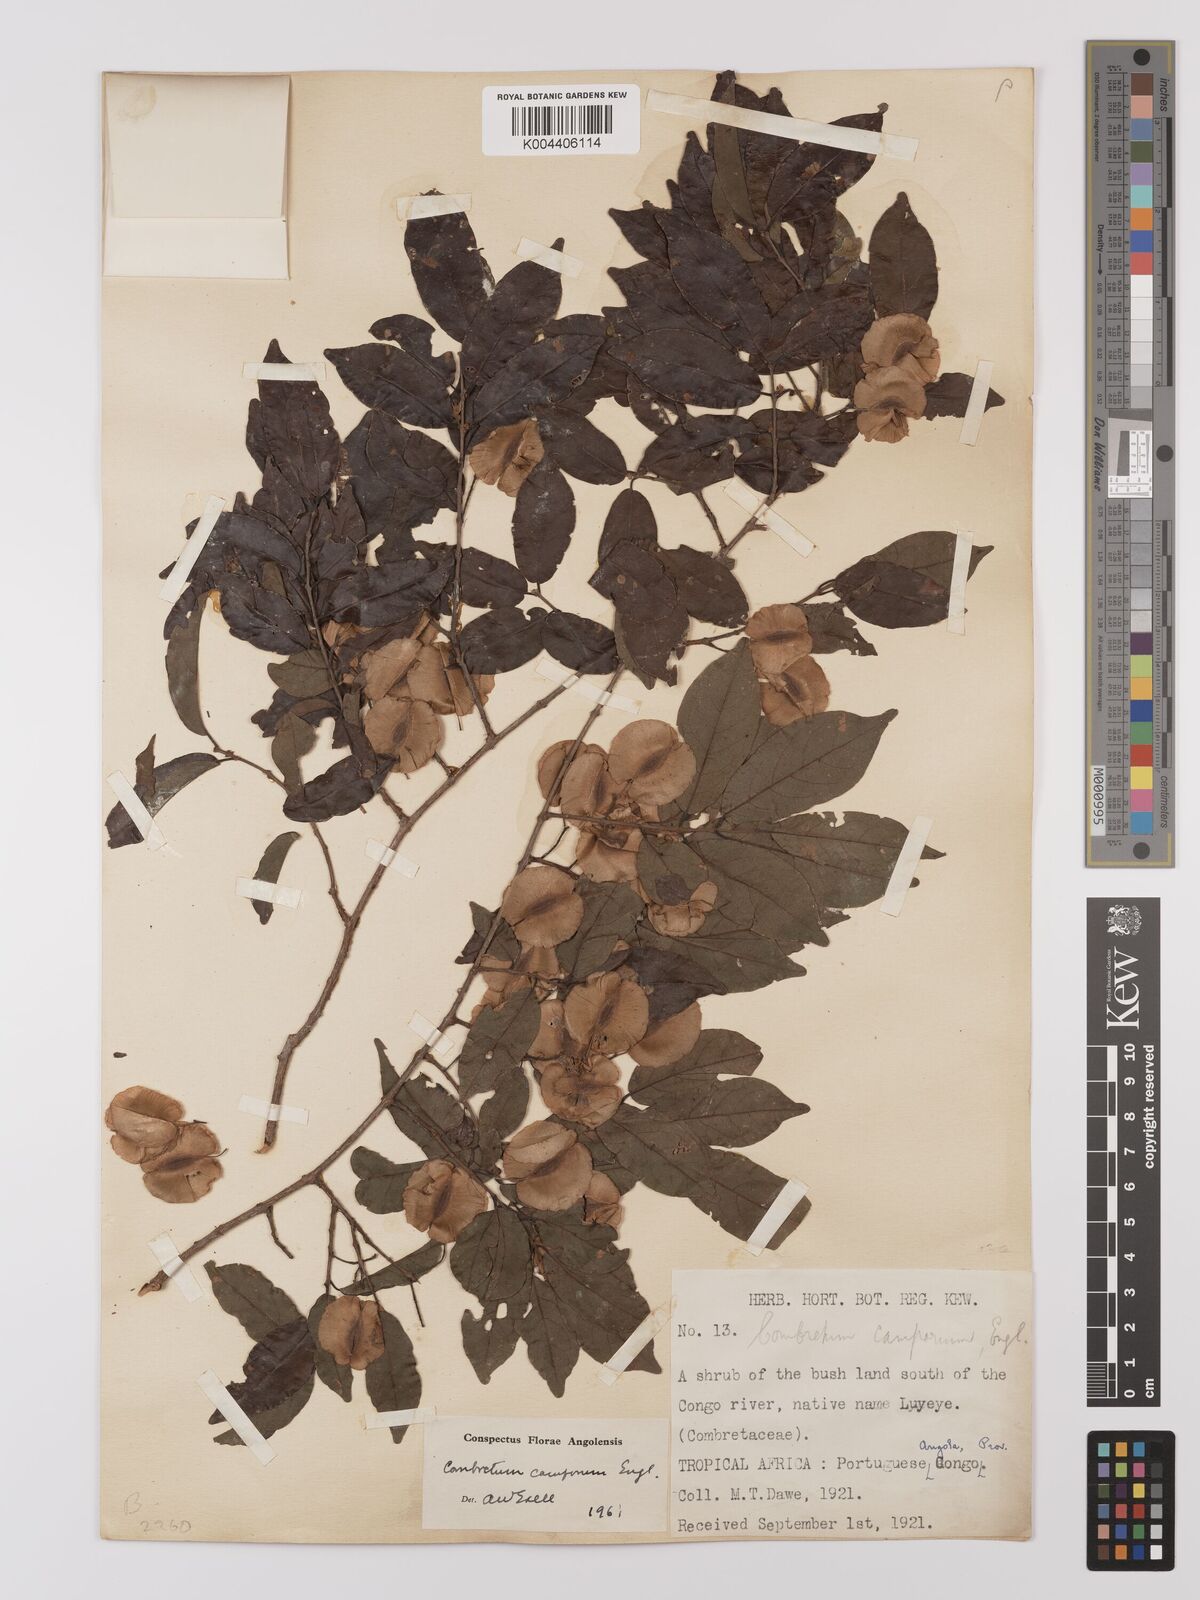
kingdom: Plantae
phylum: Tracheophyta
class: Magnoliopsida
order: Myrtales
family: Combretaceae
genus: Combretum
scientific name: Combretum camporum
